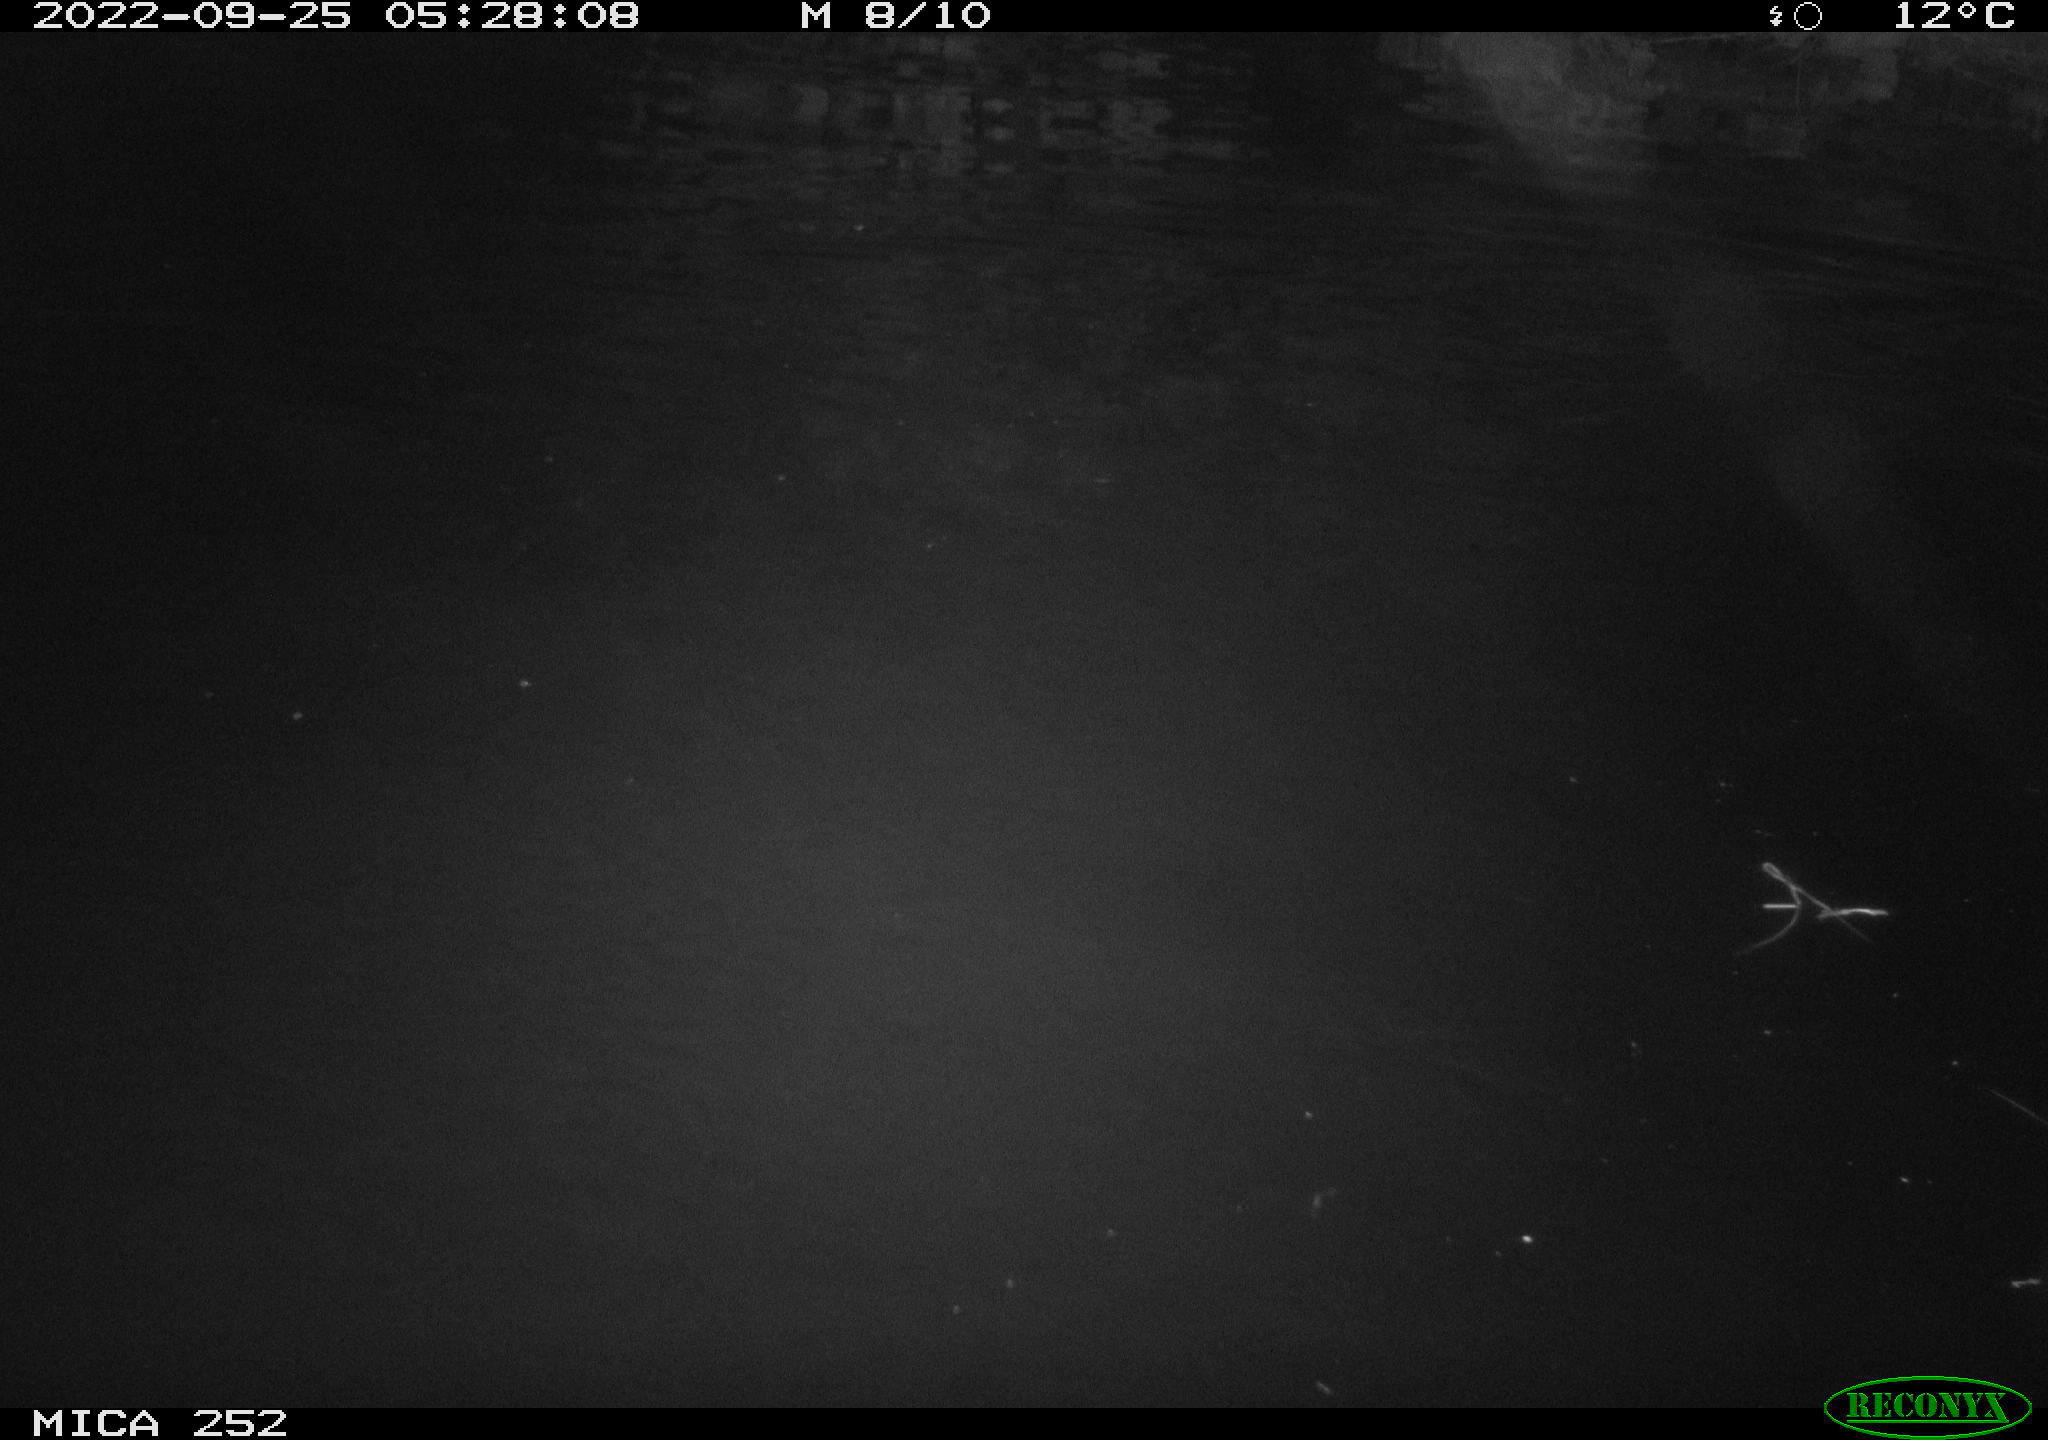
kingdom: Animalia
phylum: Chordata
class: Mammalia
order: Rodentia
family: Castoridae
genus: Castor
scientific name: Castor fiber
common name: Eurasian beaver
